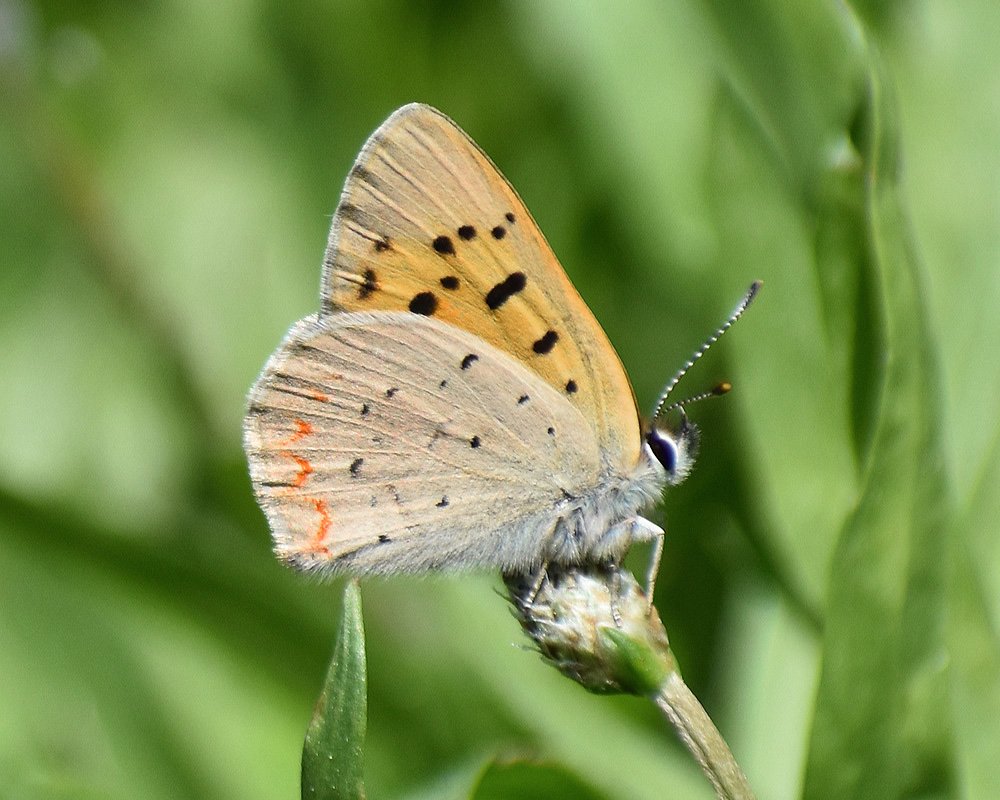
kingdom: Animalia
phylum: Arthropoda
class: Insecta
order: Lepidoptera
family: Sesiidae
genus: Sesia
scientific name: Sesia Lycaena helloides
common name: Purplish Copper
